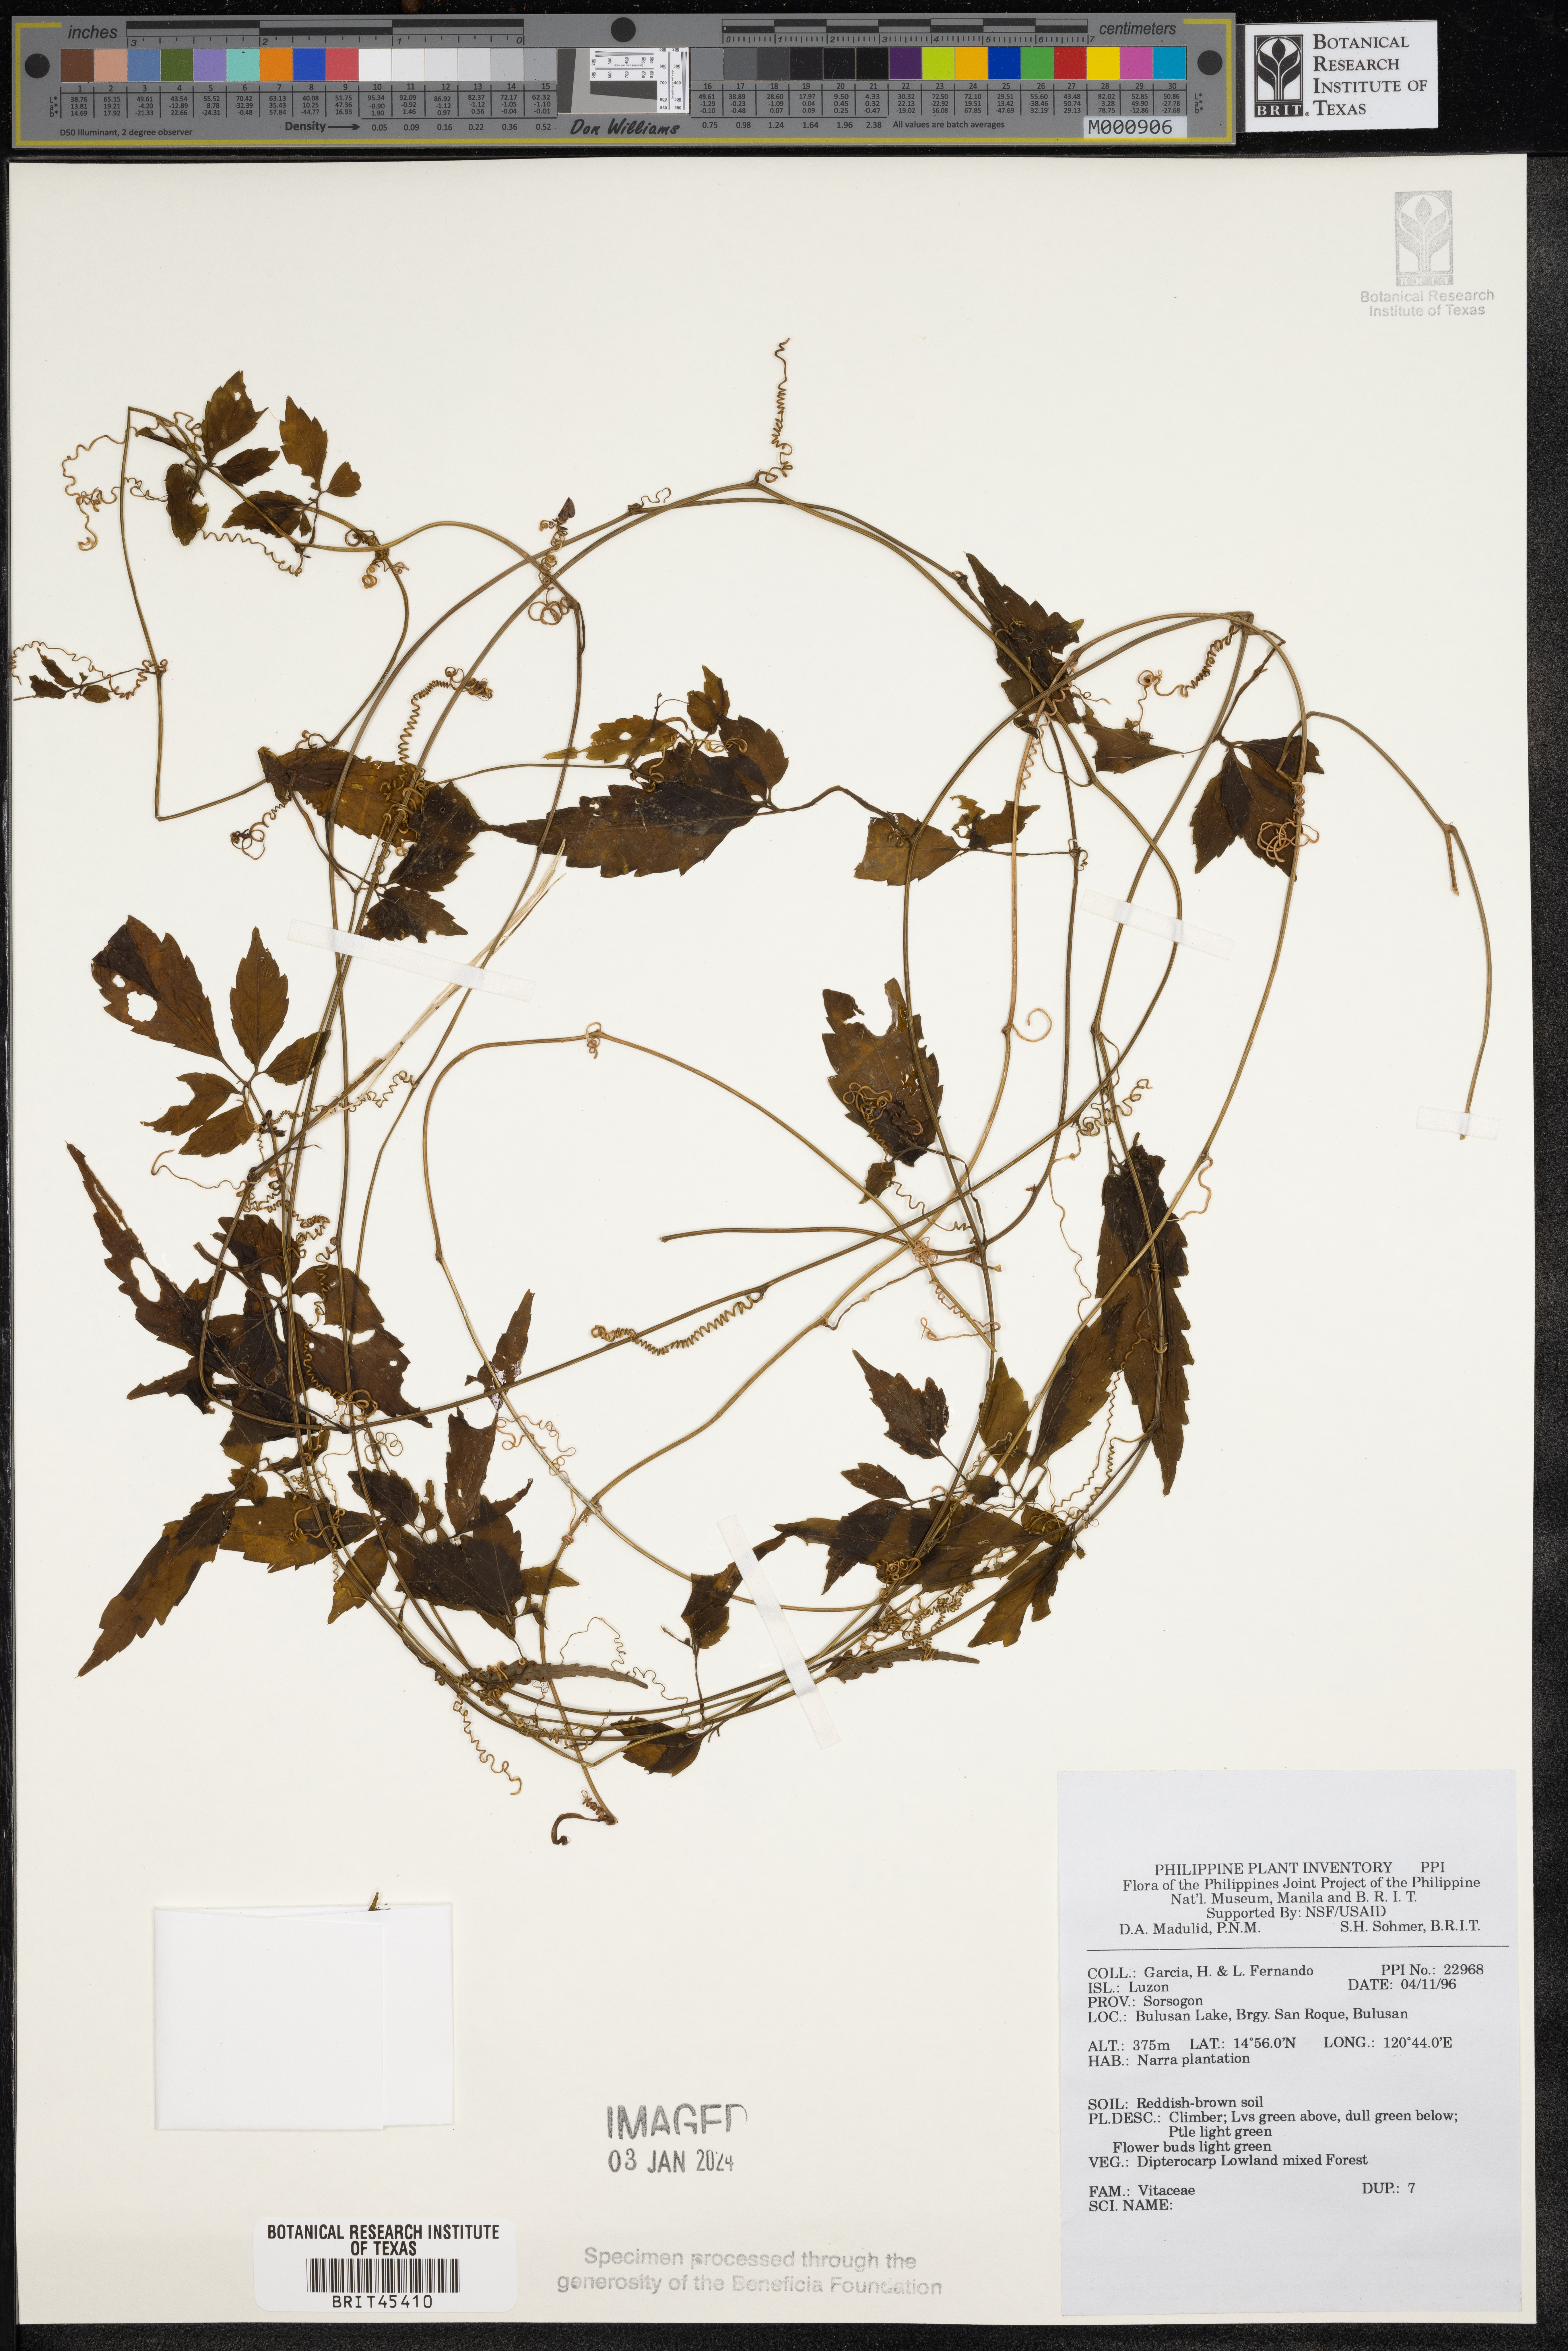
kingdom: Plantae
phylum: Tracheophyta
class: Magnoliopsida
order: Vitales
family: Vitaceae
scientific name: Vitaceae
